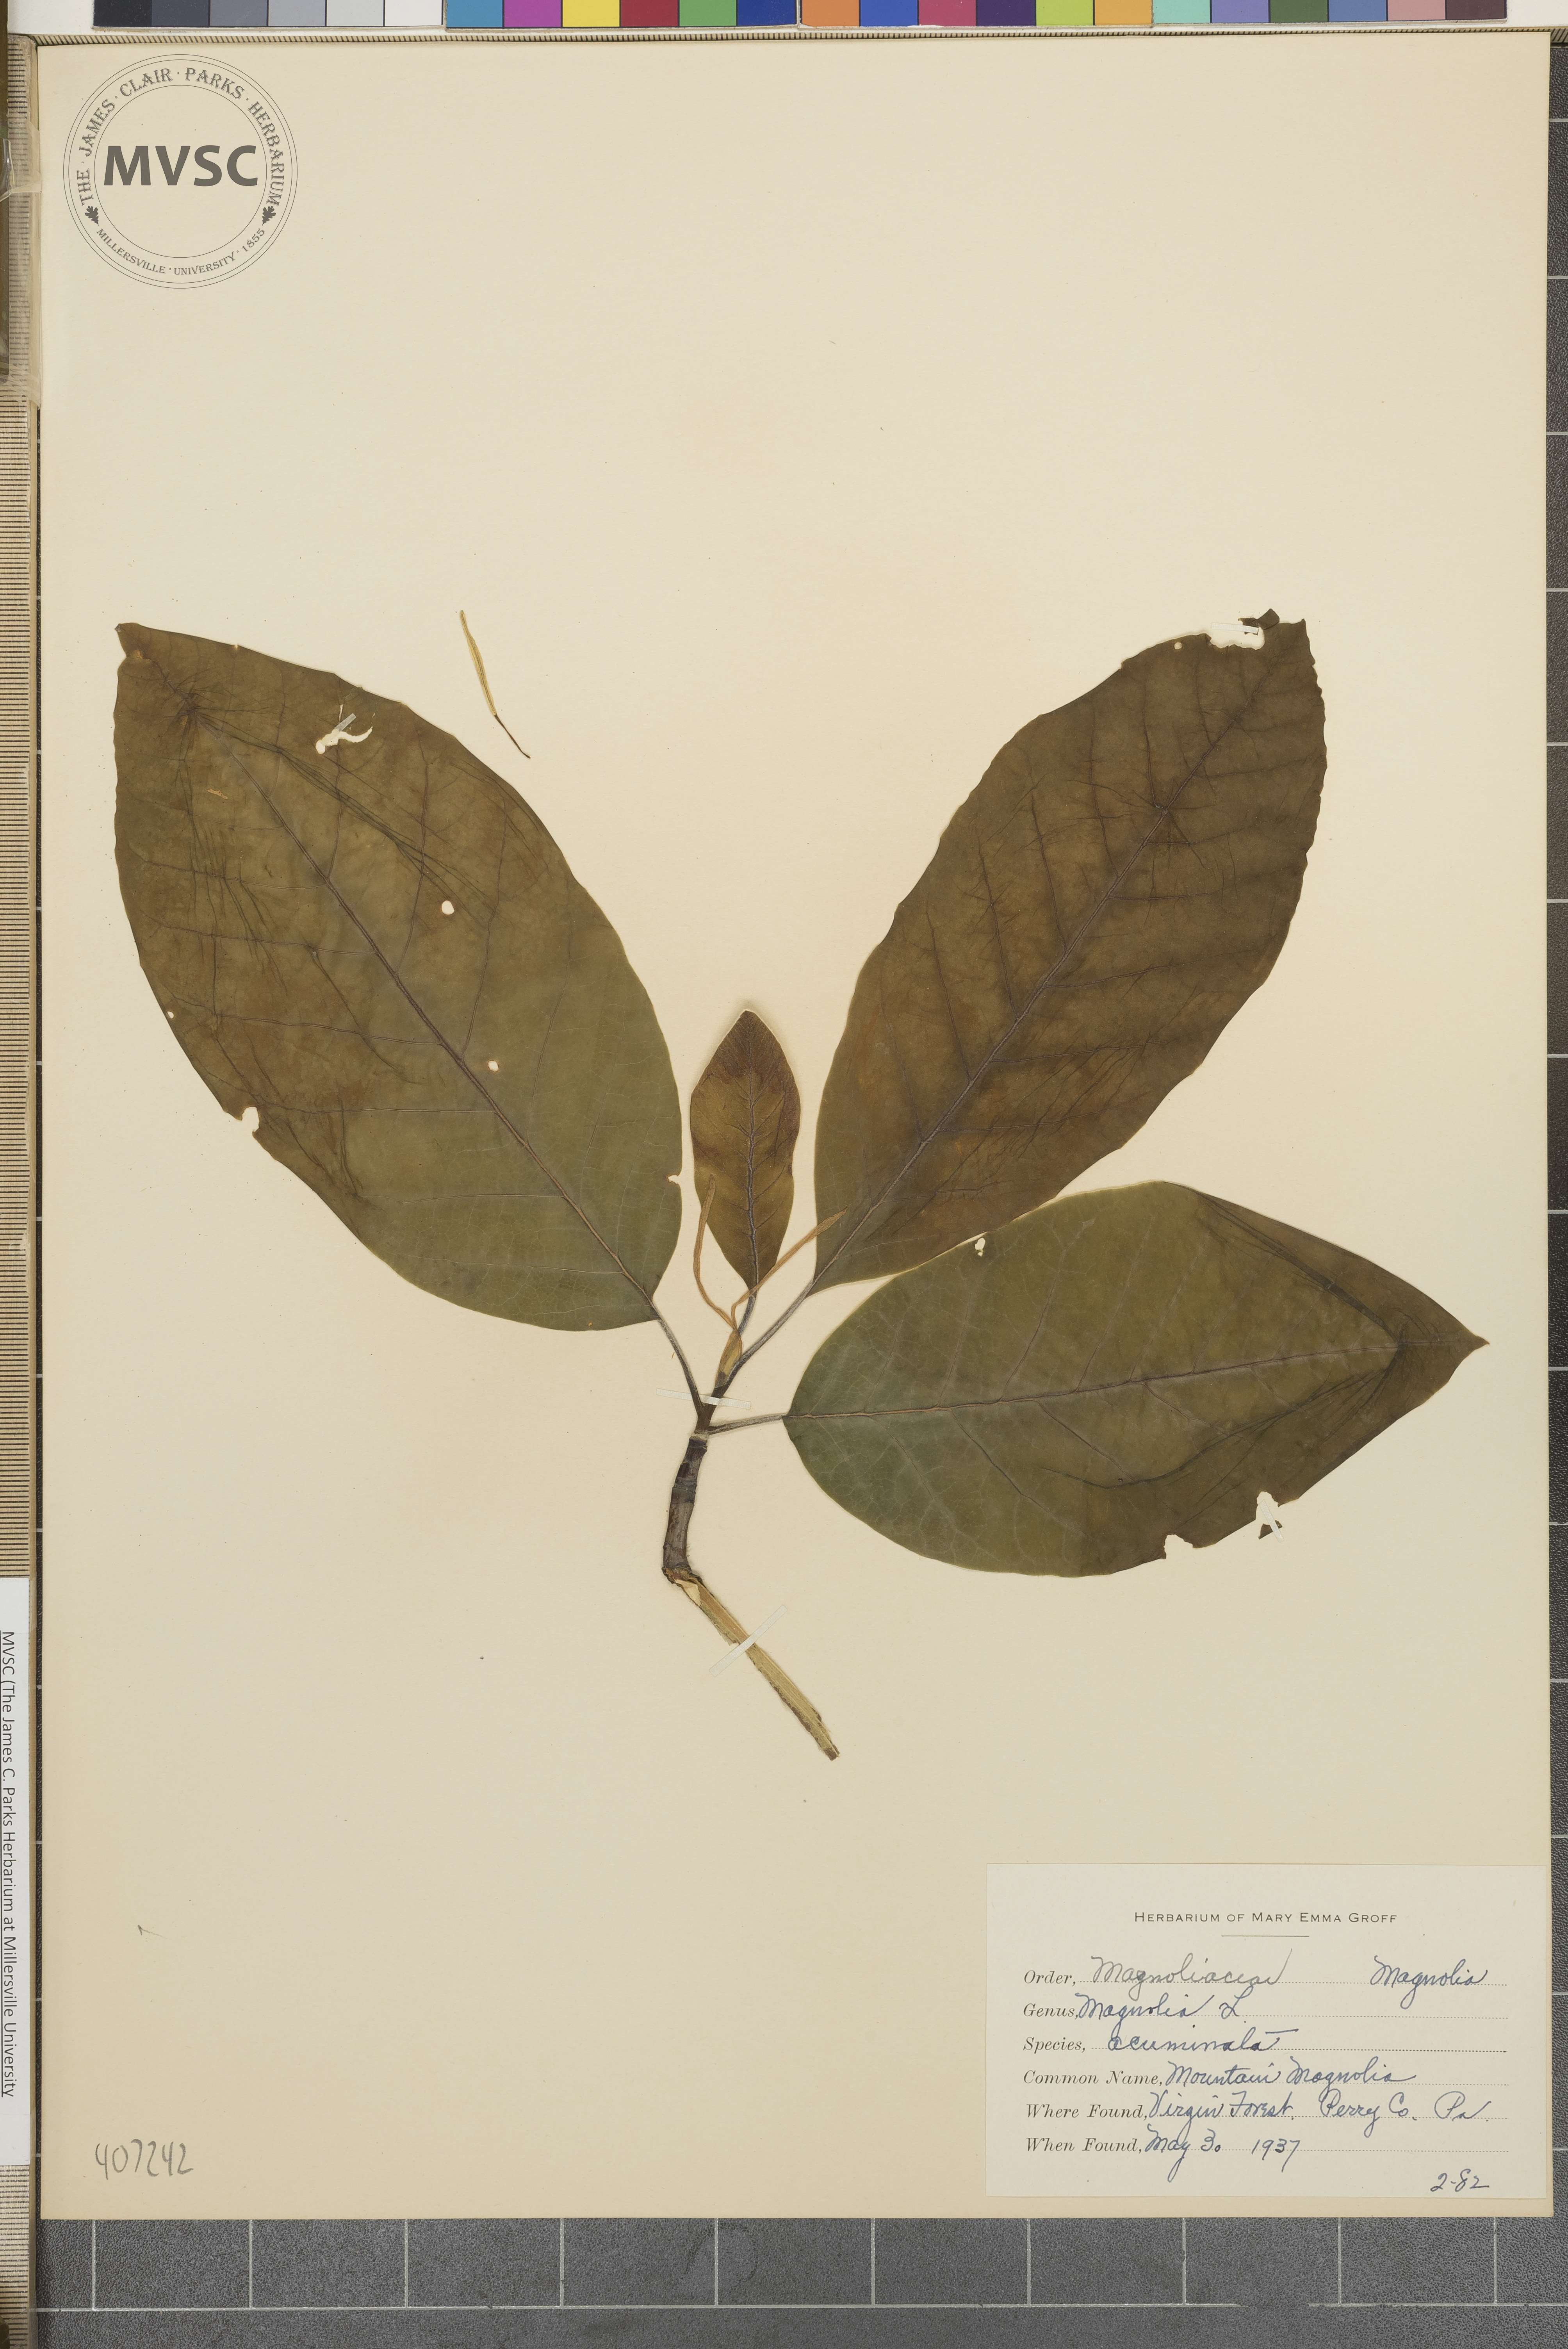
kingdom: Plantae
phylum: Tracheophyta
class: Magnoliopsida
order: Magnoliales
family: Magnoliaceae
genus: Magnolia
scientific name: Magnolia acuminata
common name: Mountain Magnolia
